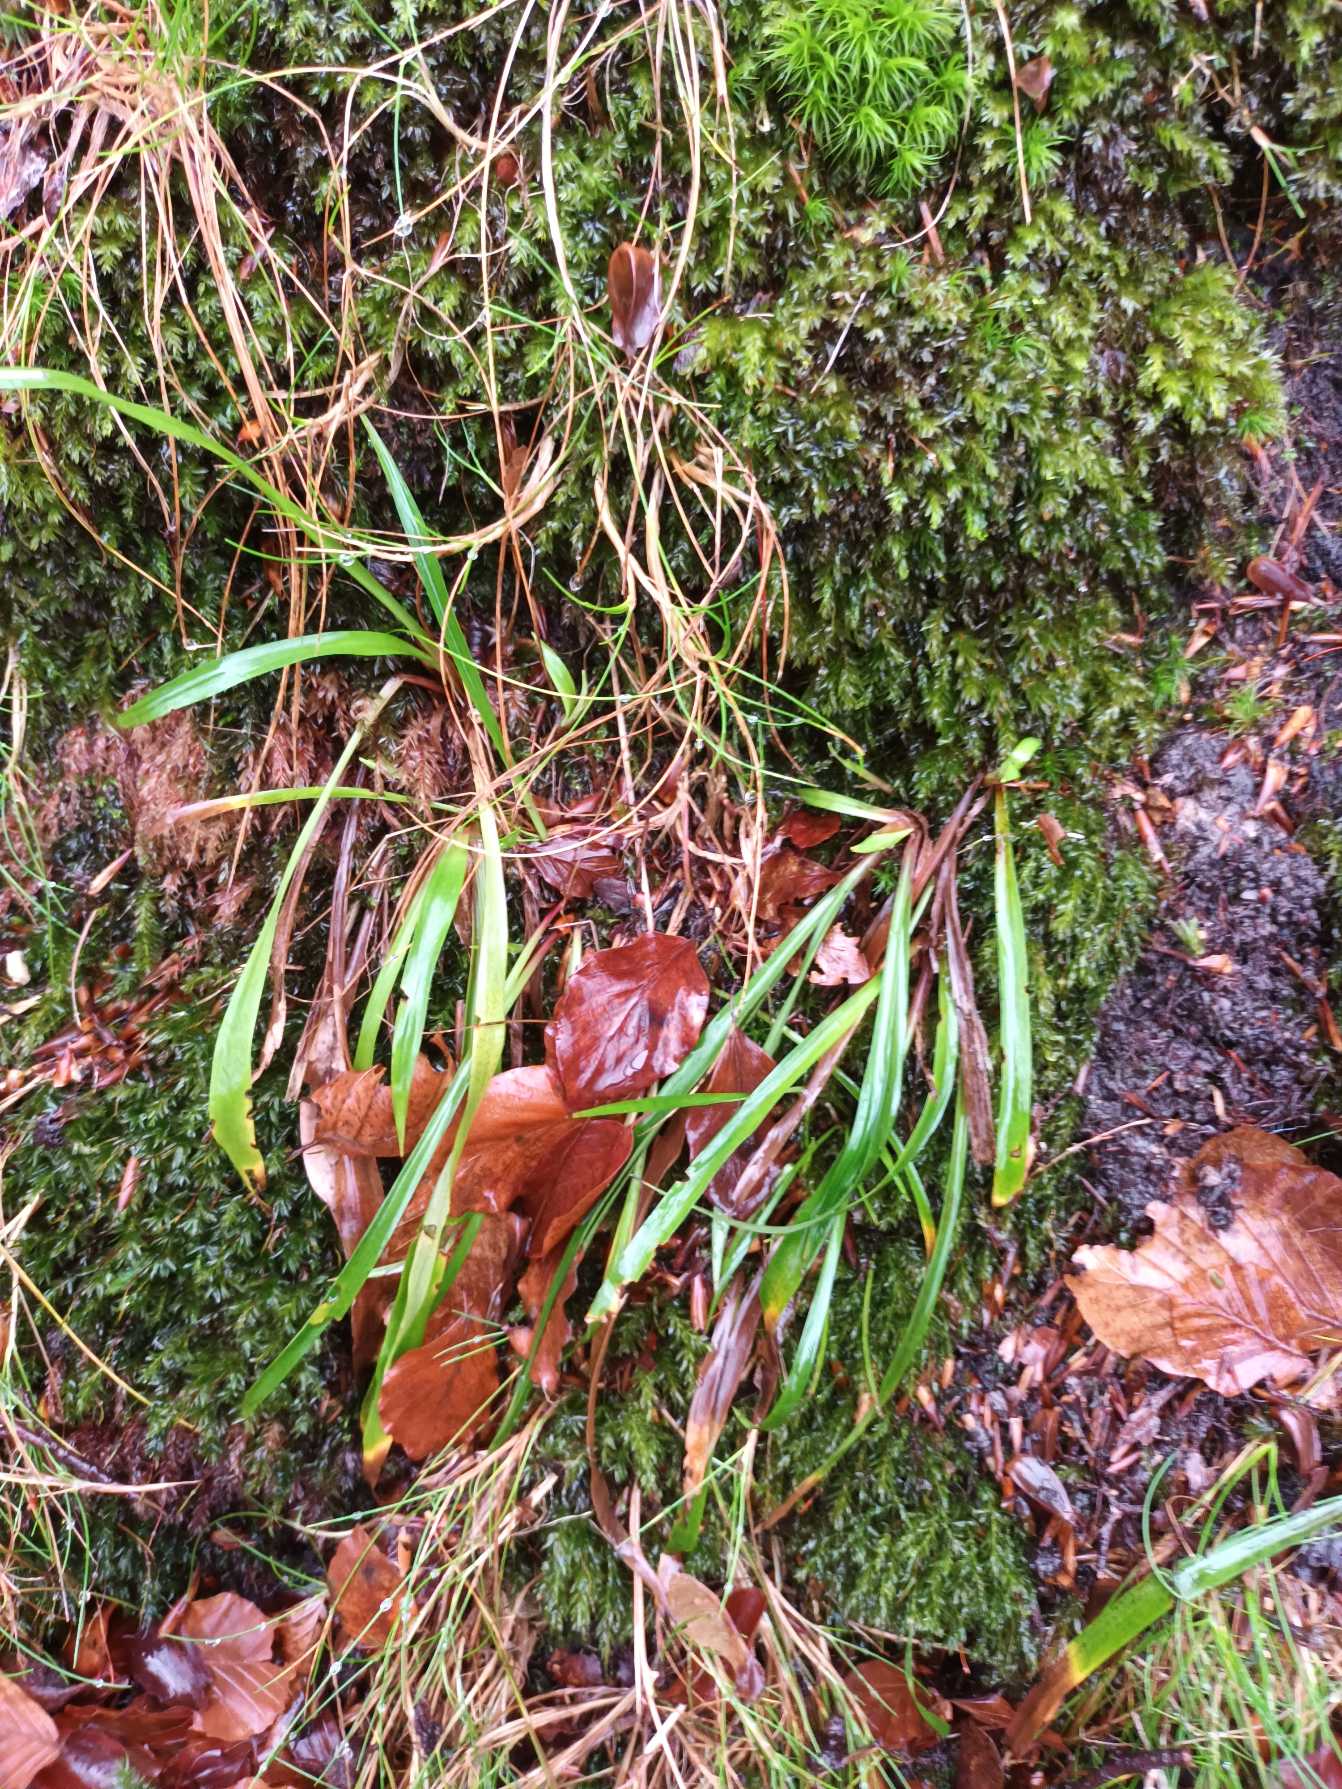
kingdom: Plantae
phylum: Tracheophyta
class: Liliopsida
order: Poales
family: Juncaceae
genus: Luzula
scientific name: Luzula pilosa
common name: Håret frytle
